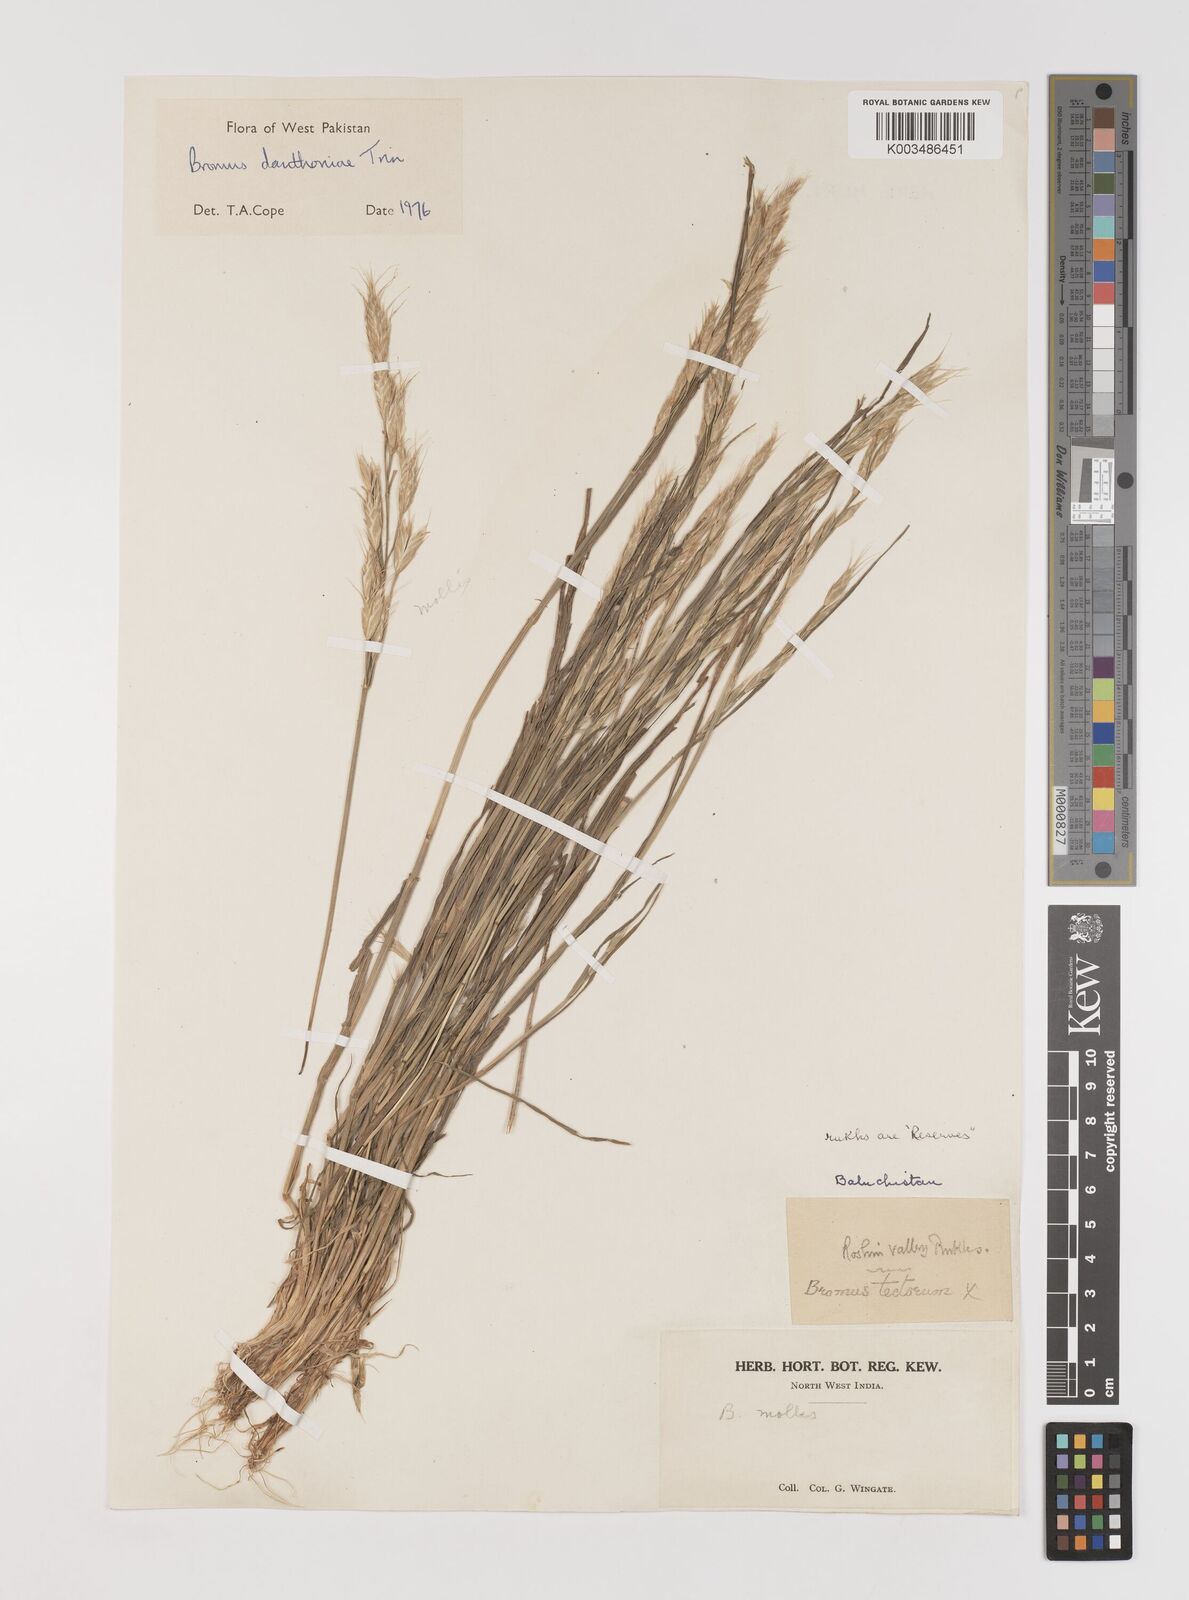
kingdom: Plantae
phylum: Tracheophyta
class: Liliopsida
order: Poales
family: Poaceae
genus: Bromus
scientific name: Bromus danthoniae
